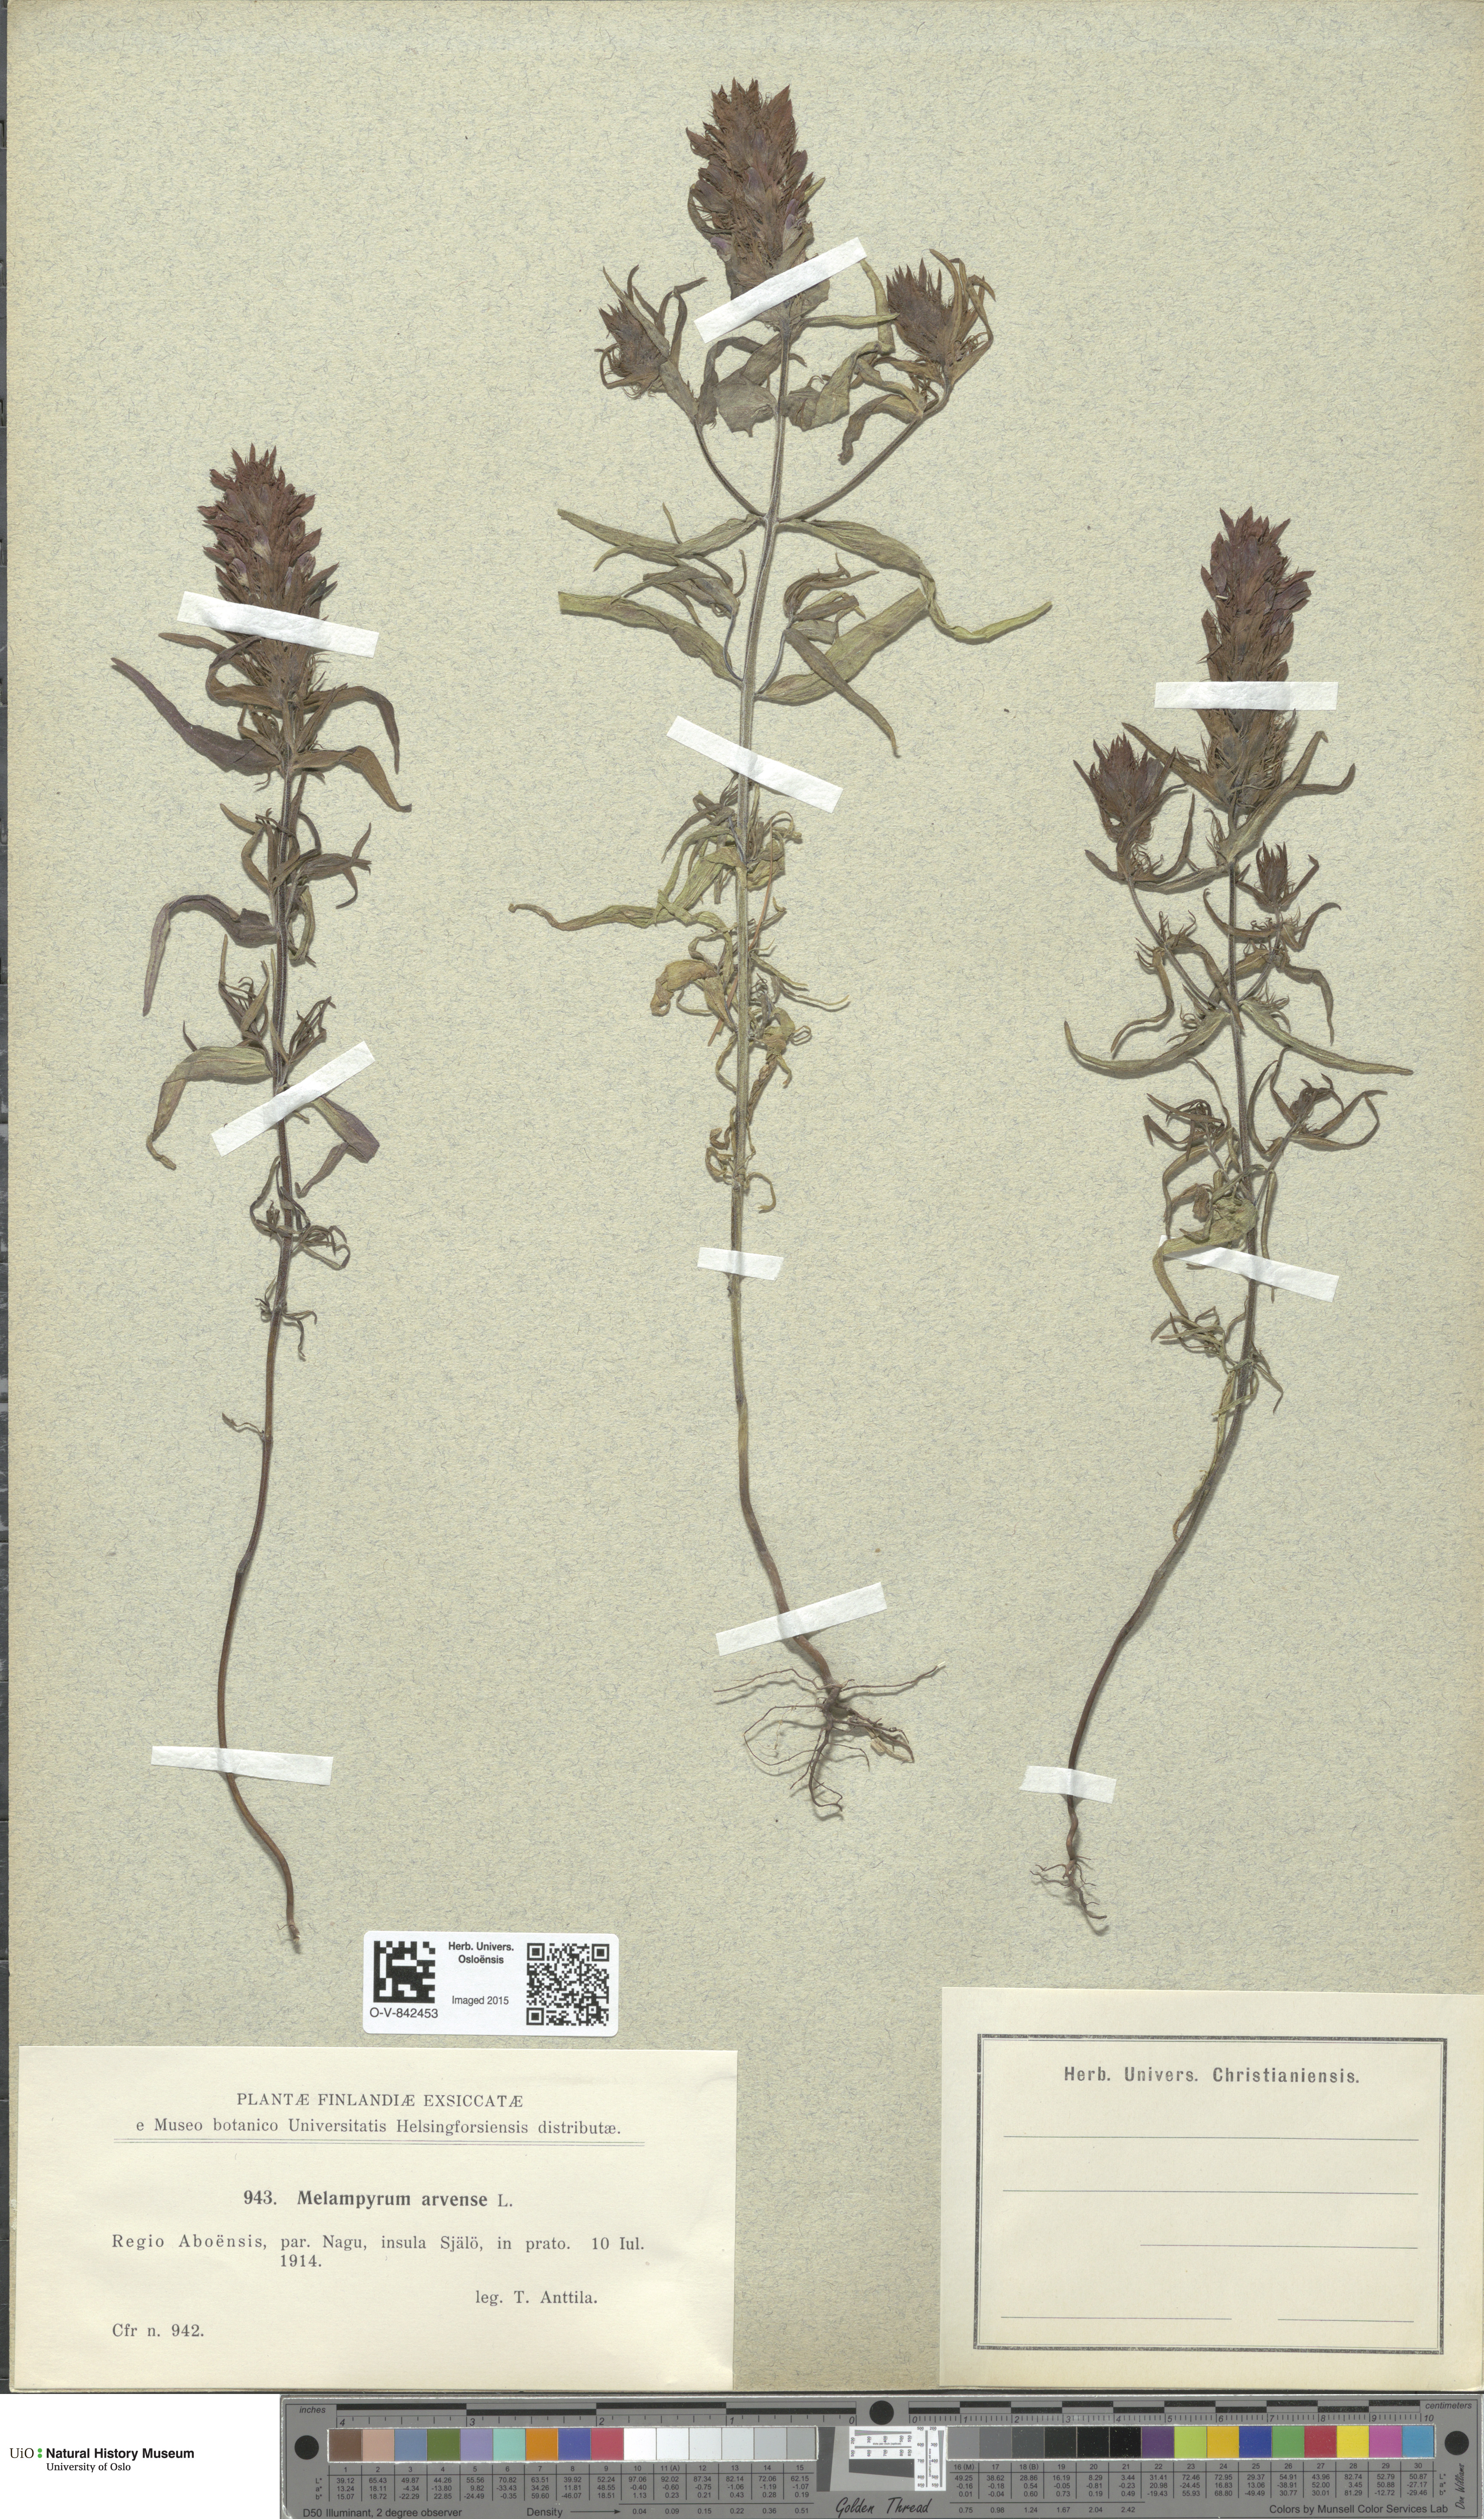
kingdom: Plantae
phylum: Tracheophyta
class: Magnoliopsida
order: Lamiales
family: Orobanchaceae
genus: Melampyrum
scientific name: Melampyrum arvense
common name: Field cow-wheat
